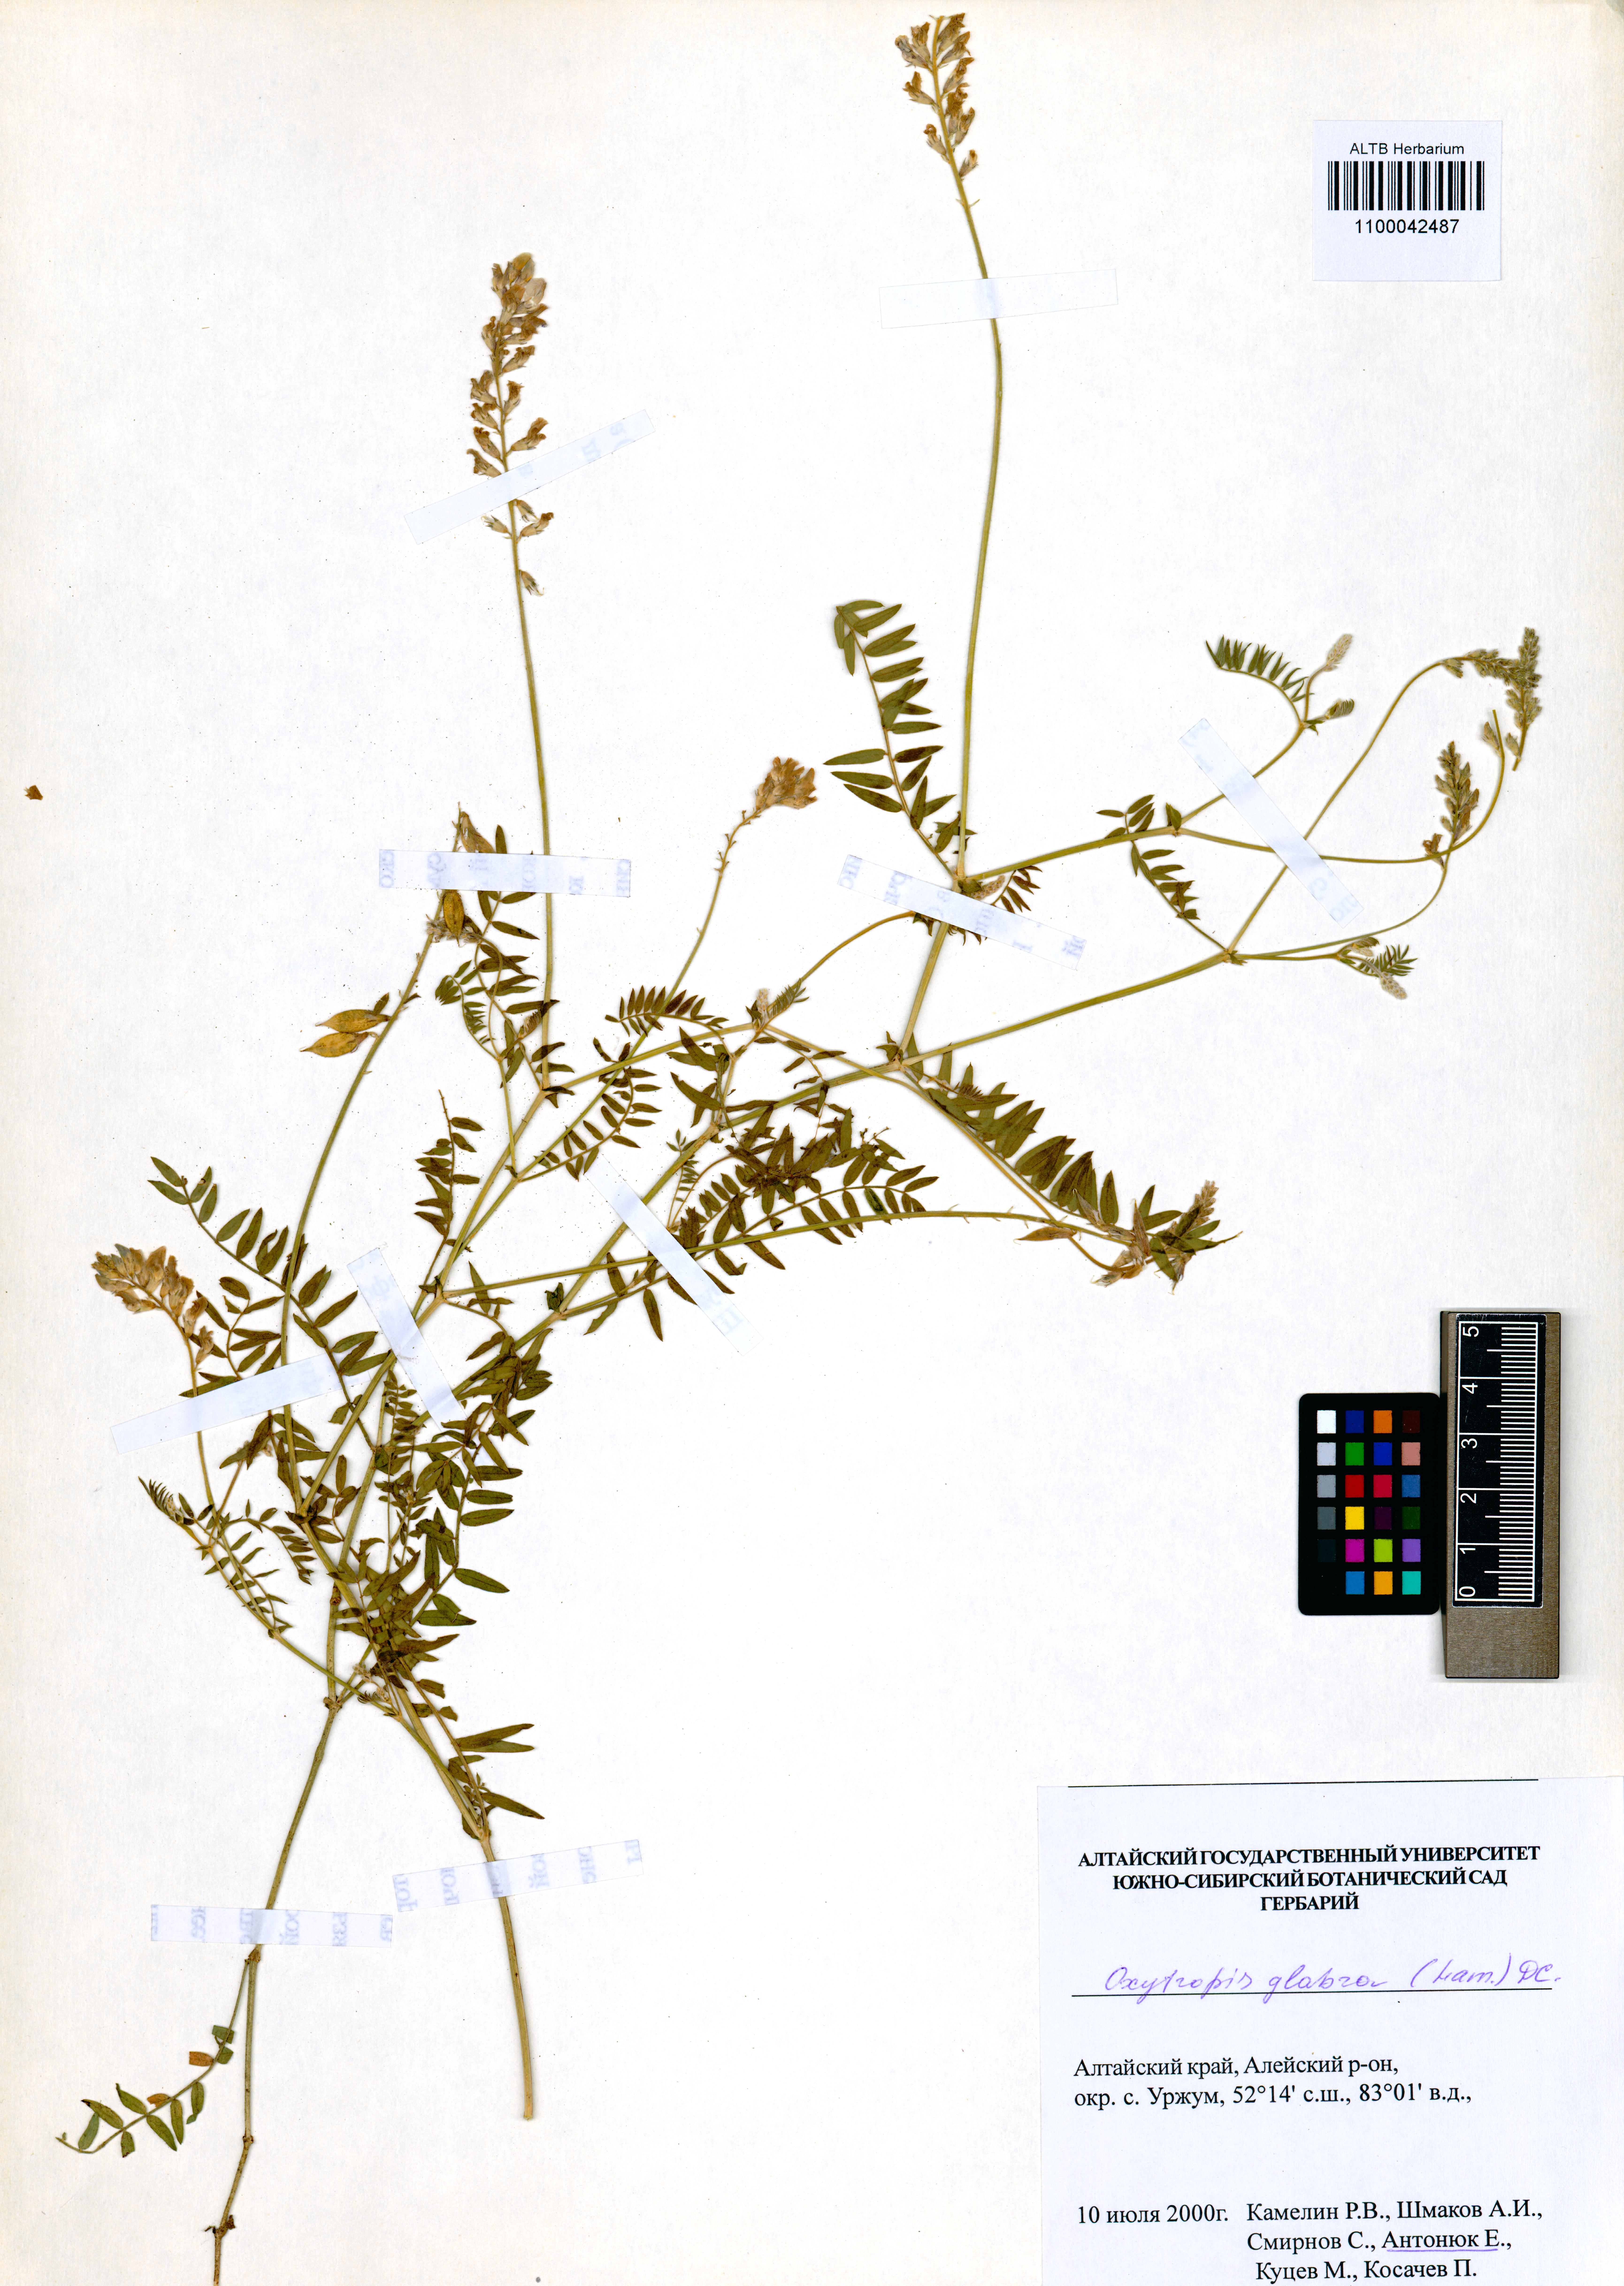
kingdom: Plantae
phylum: Tracheophyta
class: Magnoliopsida
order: Fabales
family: Fabaceae
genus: Oxytropis
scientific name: Oxytropis glabra
